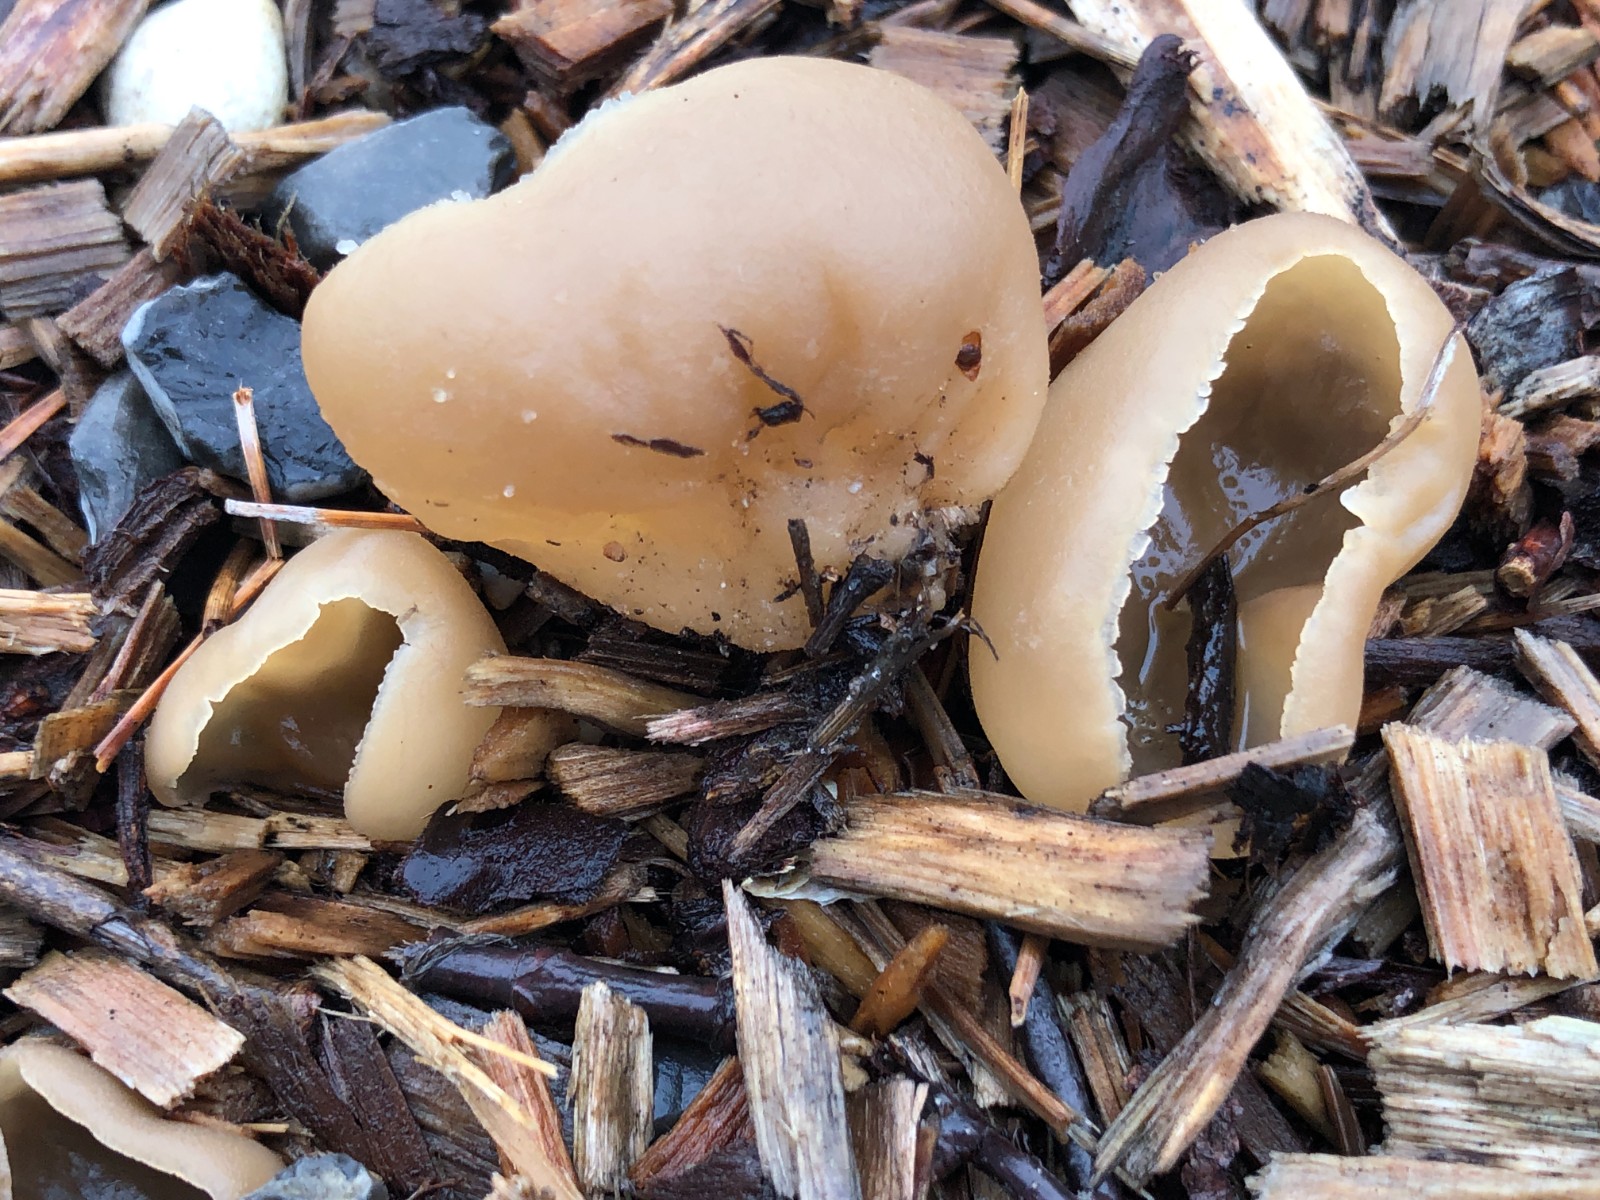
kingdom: Fungi
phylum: Ascomycota
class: Pezizomycetes
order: Pezizales
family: Pezizaceae
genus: Peziza
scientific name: Peziza varia
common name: Ved-bægersvamp
